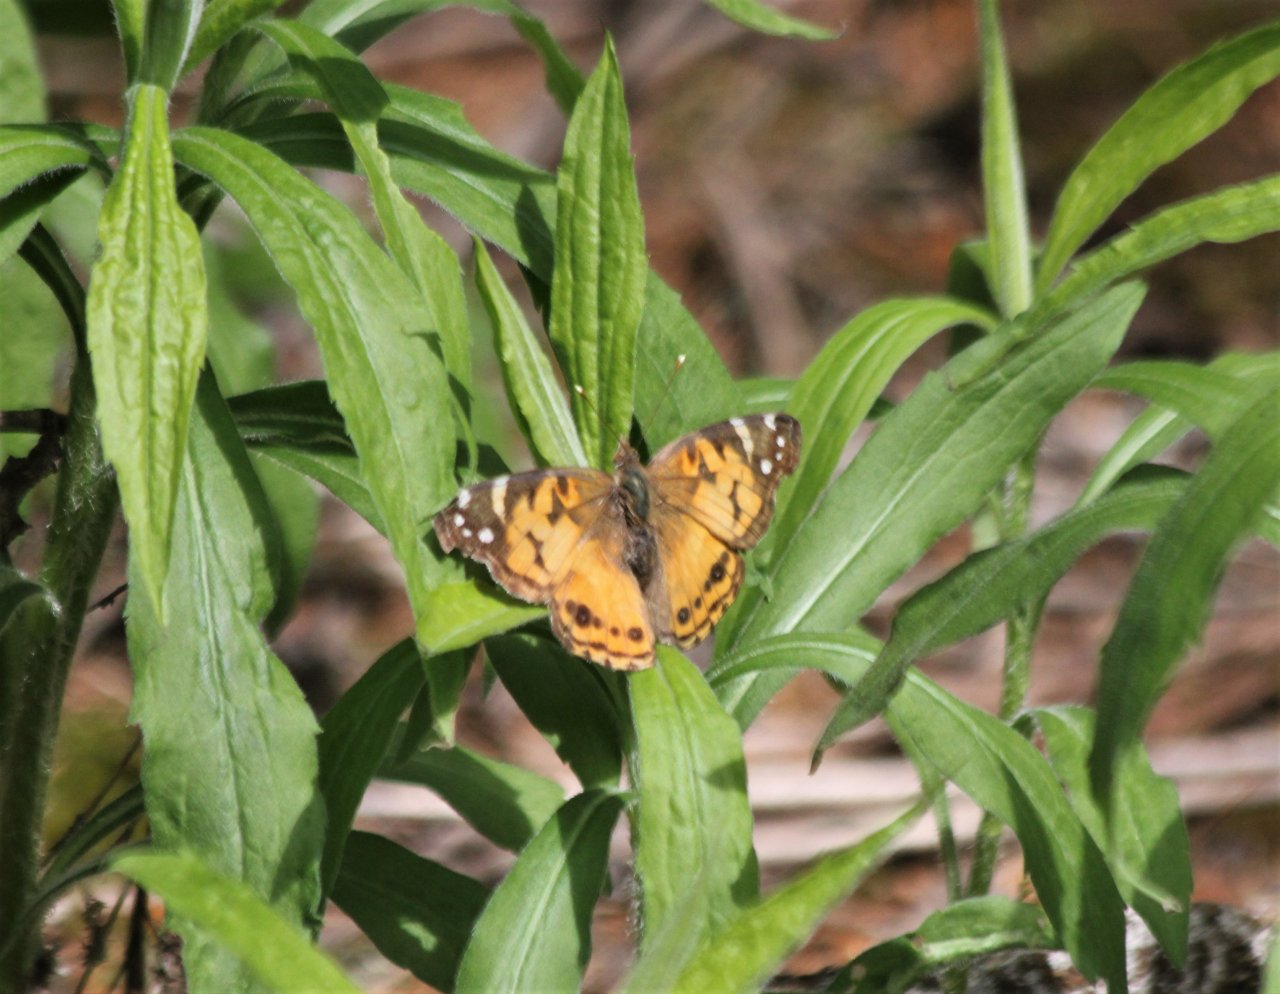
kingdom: Animalia
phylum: Arthropoda
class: Insecta
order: Lepidoptera
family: Nymphalidae
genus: Vanessa
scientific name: Vanessa virginiensis
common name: American Lady
